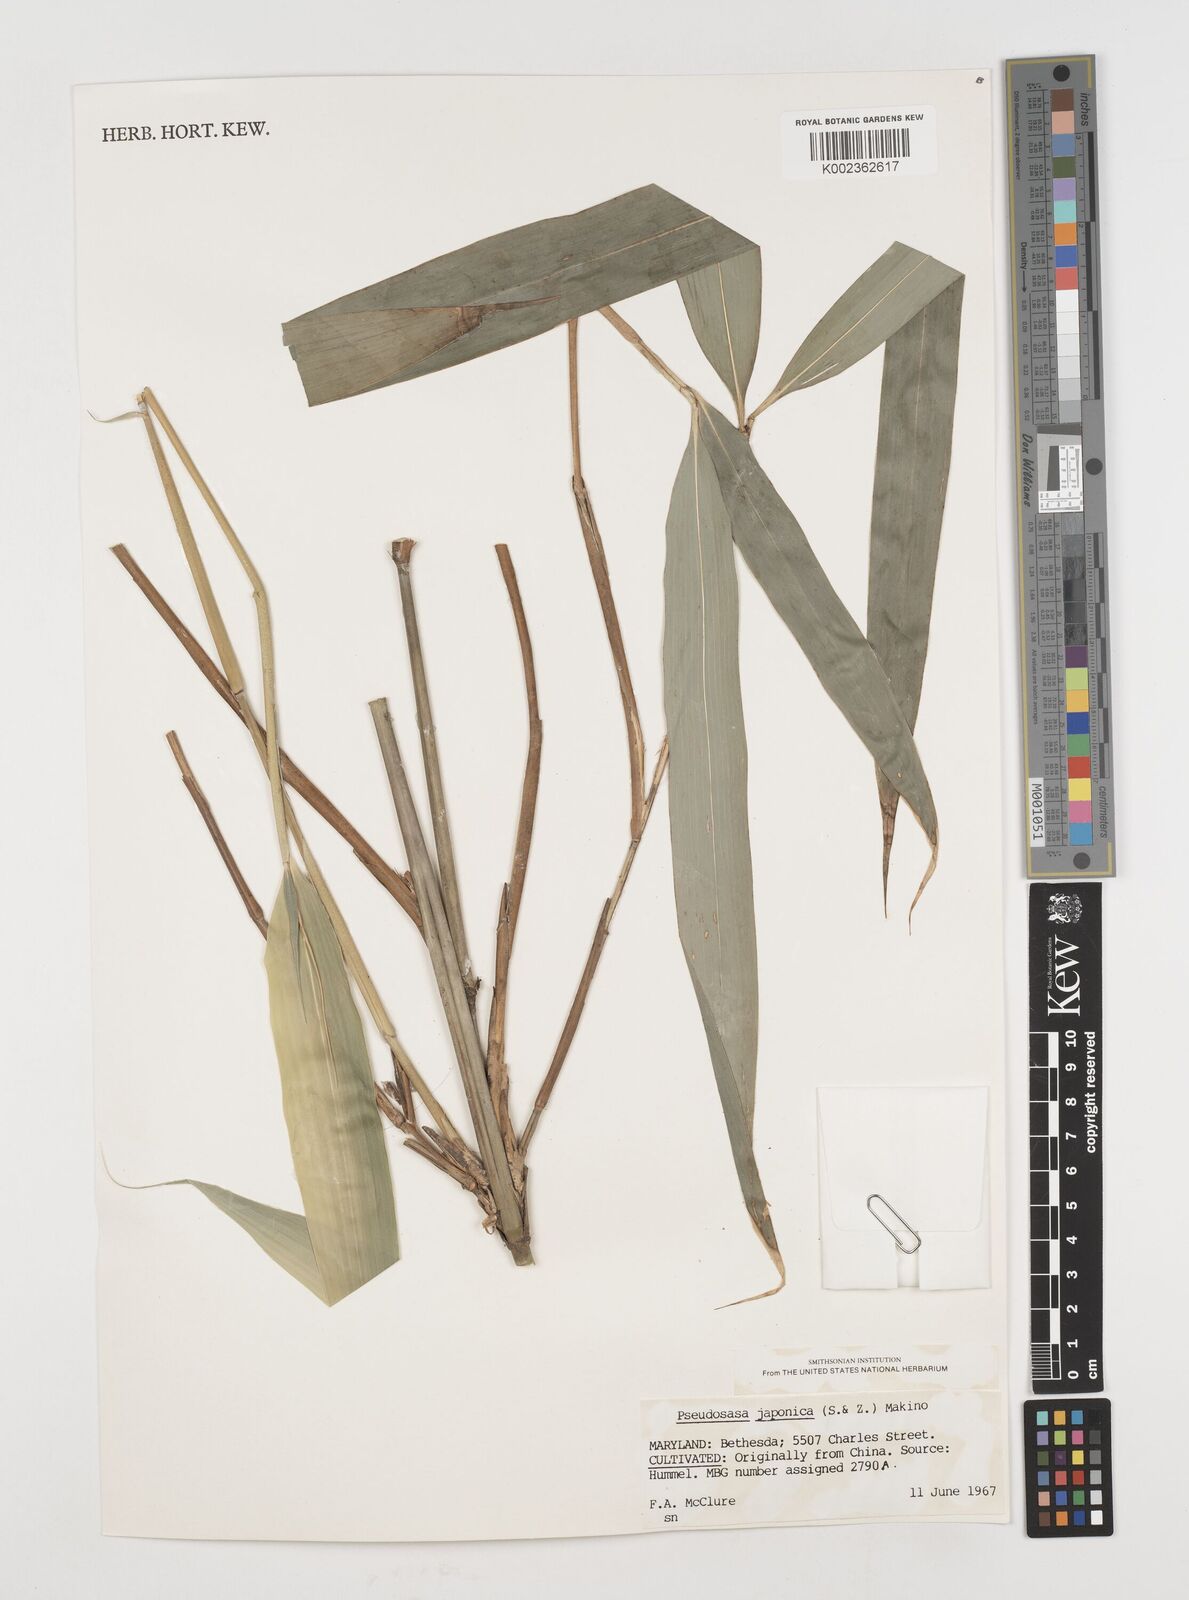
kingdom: Plantae
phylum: Tracheophyta
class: Liliopsida
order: Poales
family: Poaceae
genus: Pseudosasa
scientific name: Pseudosasa japonica
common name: Arrow bamboo
